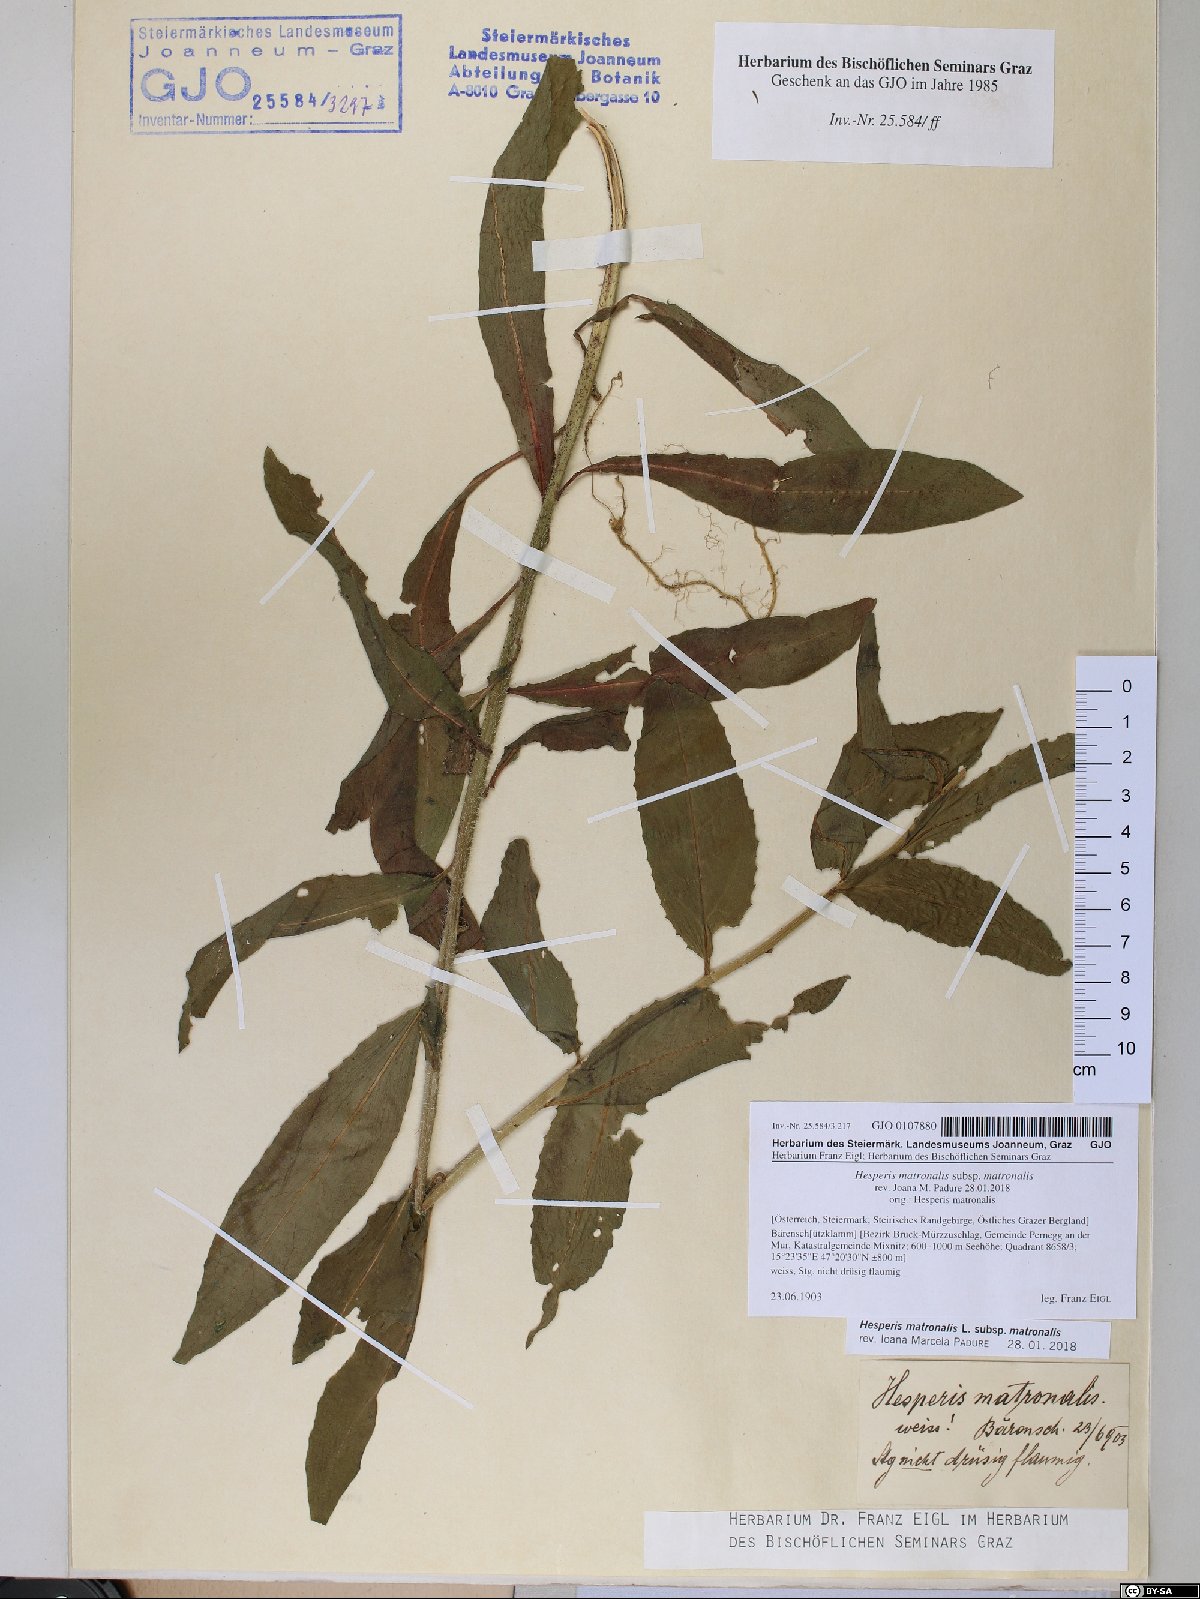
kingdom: Plantae
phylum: Tracheophyta
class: Magnoliopsida
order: Brassicales
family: Brassicaceae
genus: Hesperis
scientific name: Hesperis matronalis
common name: Dame's-violet
